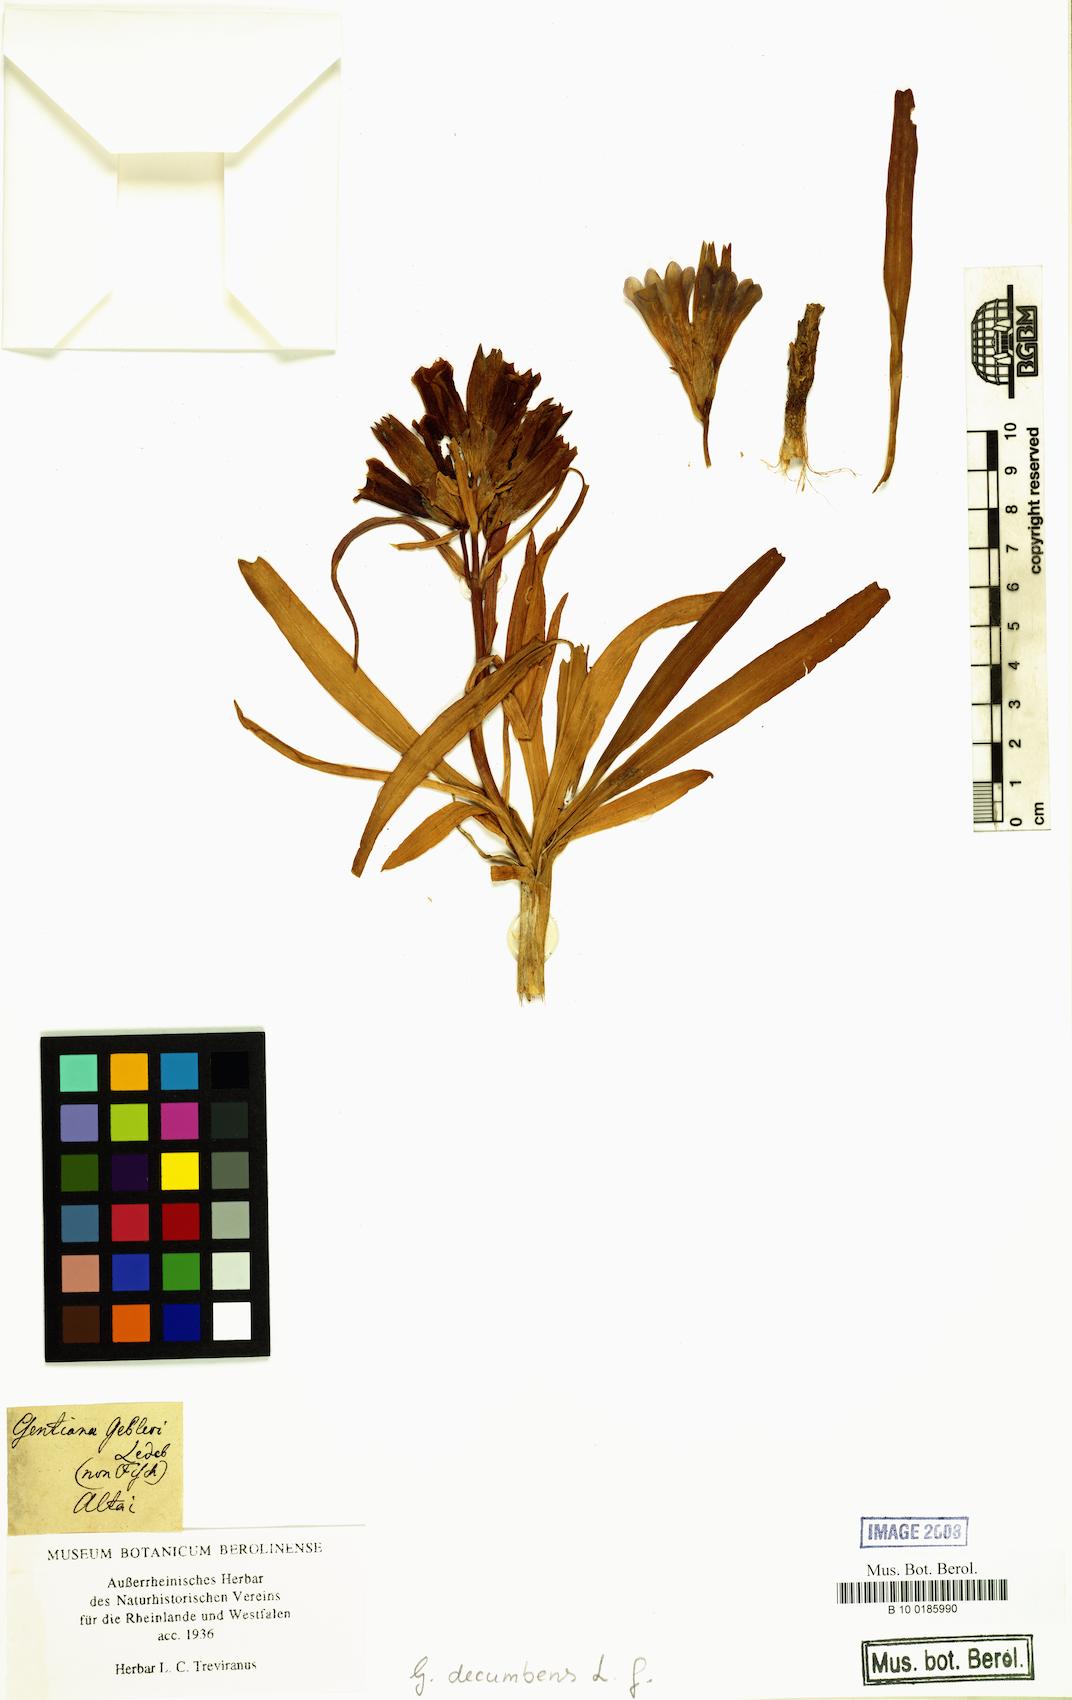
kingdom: Plantae
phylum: Tracheophyta
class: Magnoliopsida
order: Gentianales
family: Gentianaceae
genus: Gentiana
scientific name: Gentiana decumbens
